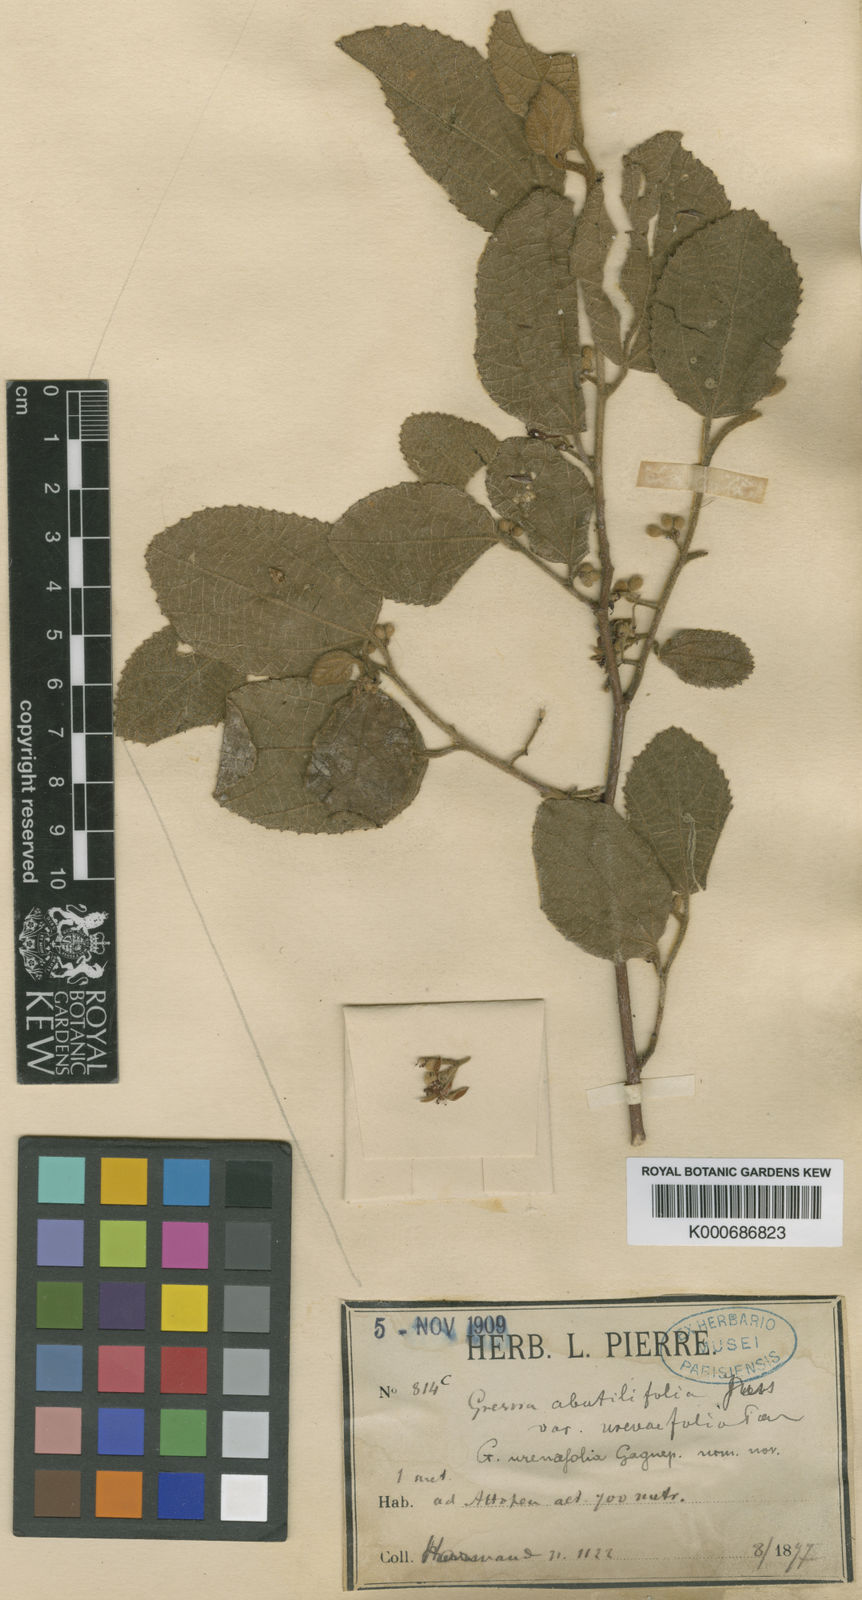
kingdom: Plantae
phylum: Tracheophyta
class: Magnoliopsida
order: Malvales
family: Malvaceae
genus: Grewia
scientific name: Grewia abutilifolia
